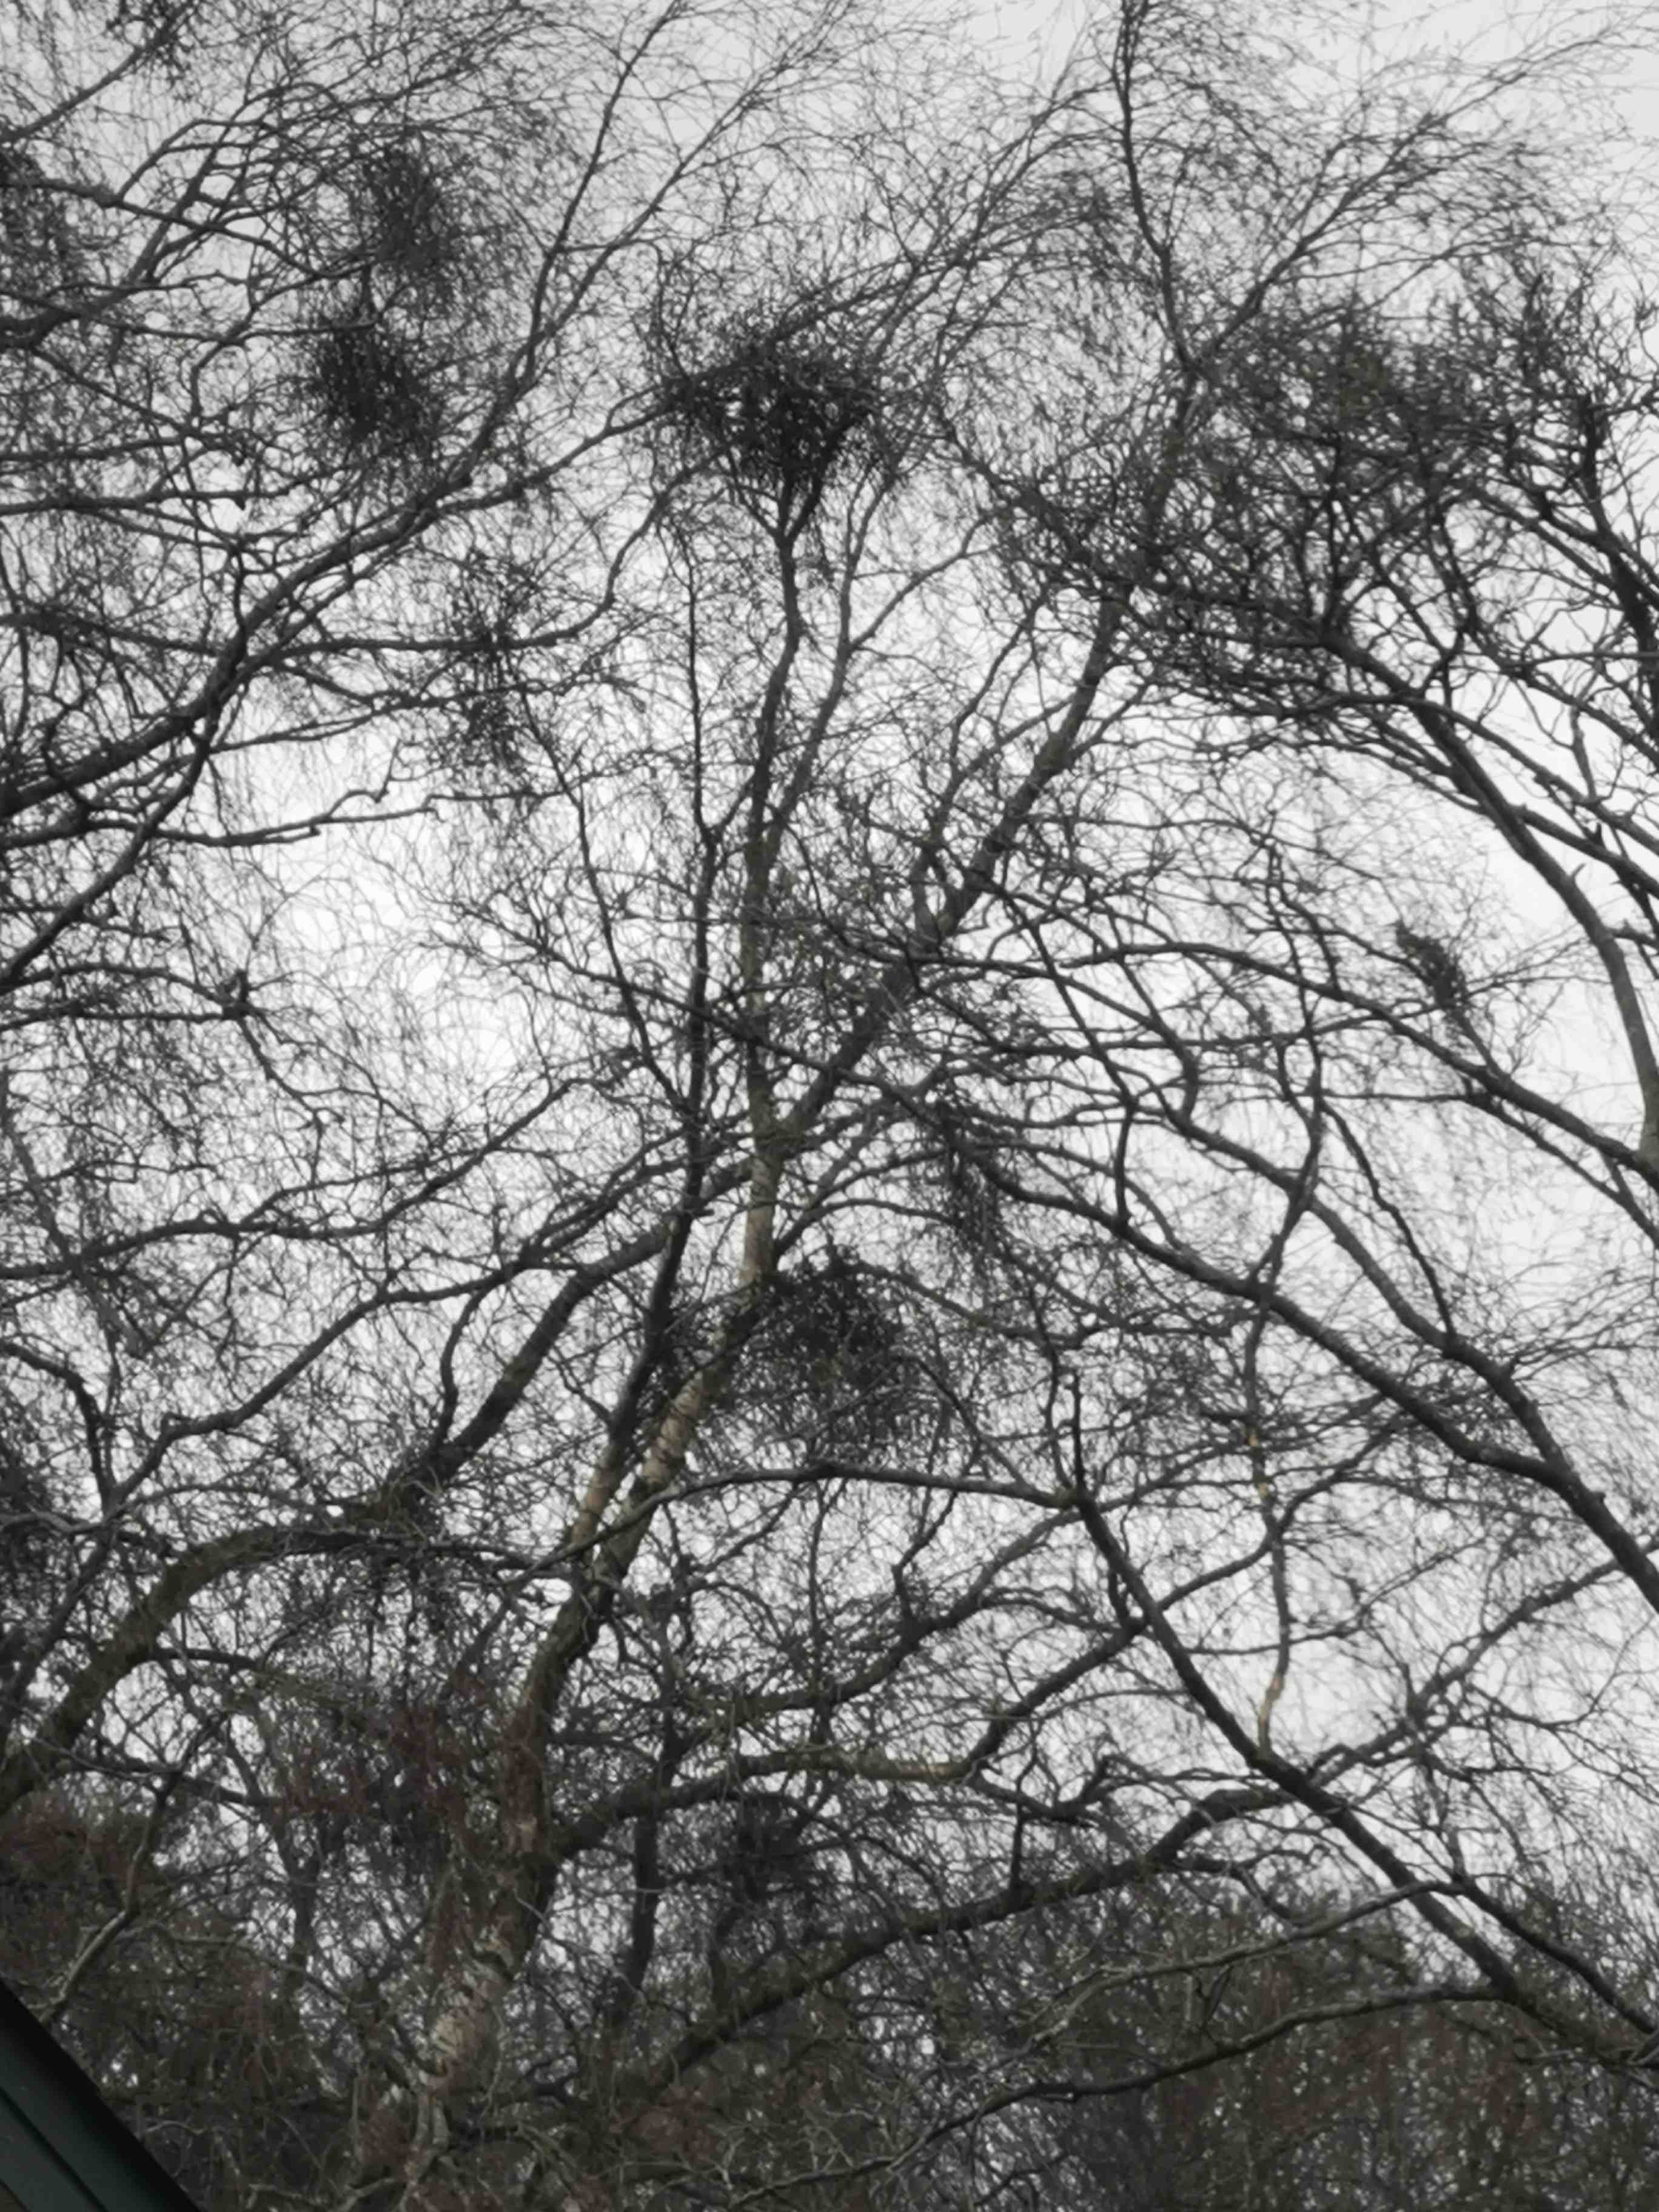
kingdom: Fungi
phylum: Ascomycota
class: Taphrinomycetes
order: Taphrinales
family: Taphrinaceae
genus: Taphrina
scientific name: Taphrina betulina
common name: hekse-sækdug
